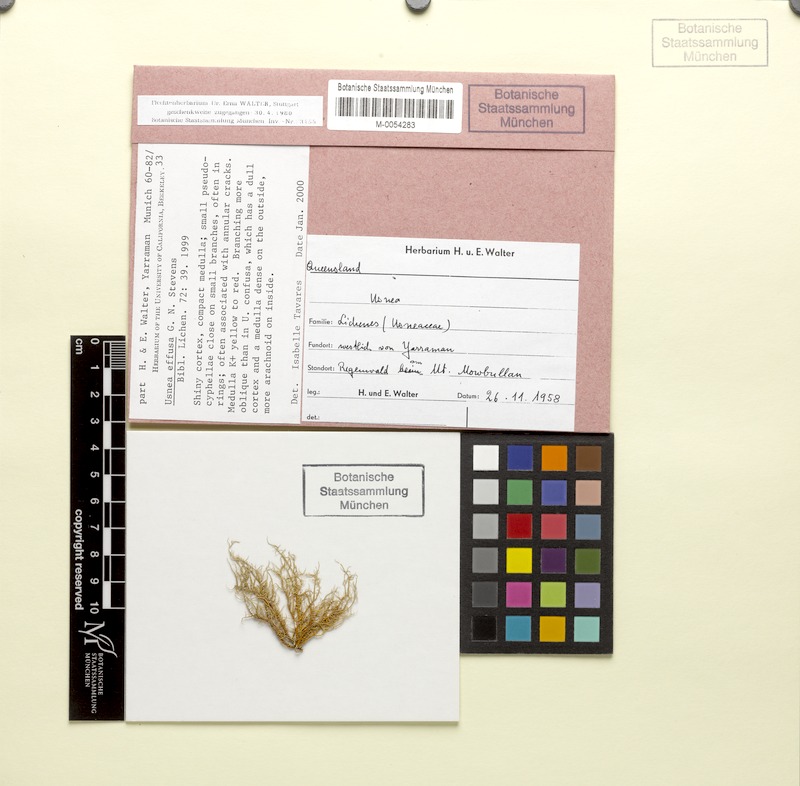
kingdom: Fungi
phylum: Ascomycota
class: Lecanoromycetes
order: Lecanorales
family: Parmeliaceae
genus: Usnea
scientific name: Usnea effusa
